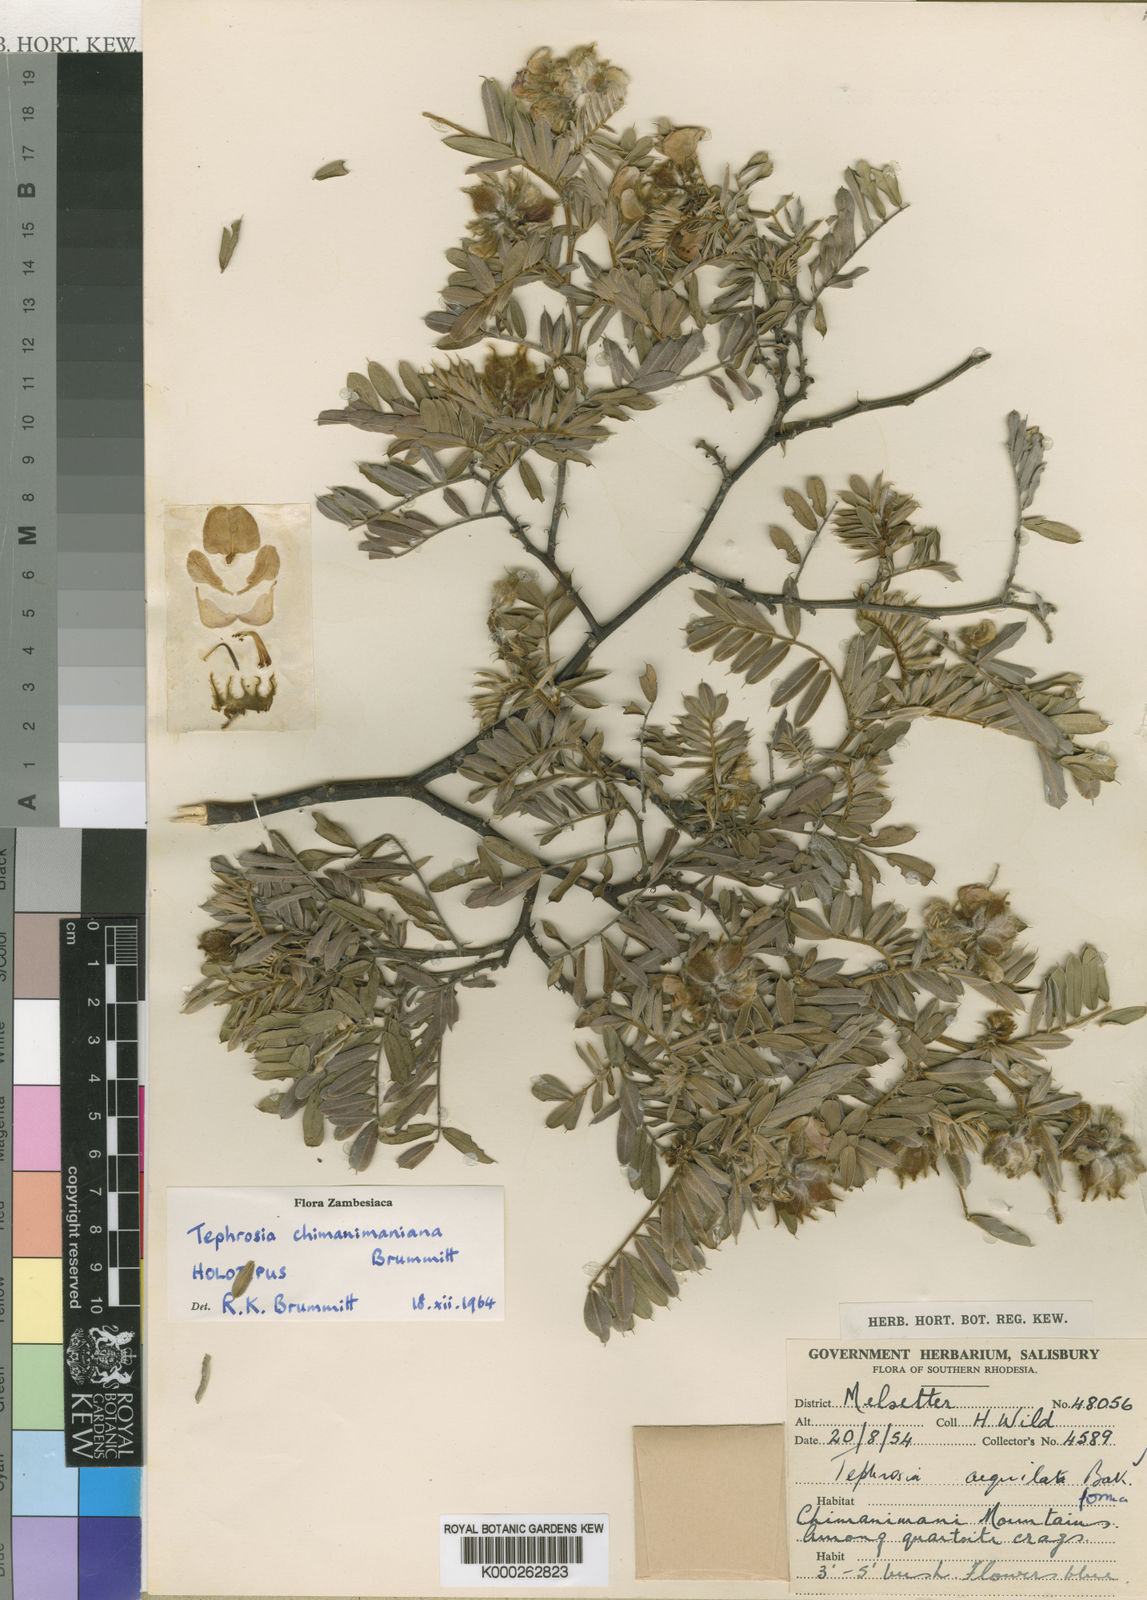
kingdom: Plantae
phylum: Tracheophyta
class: Magnoliopsida
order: Fabales
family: Fabaceae
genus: Tephrosia
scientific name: Tephrosia chimanimaniana
